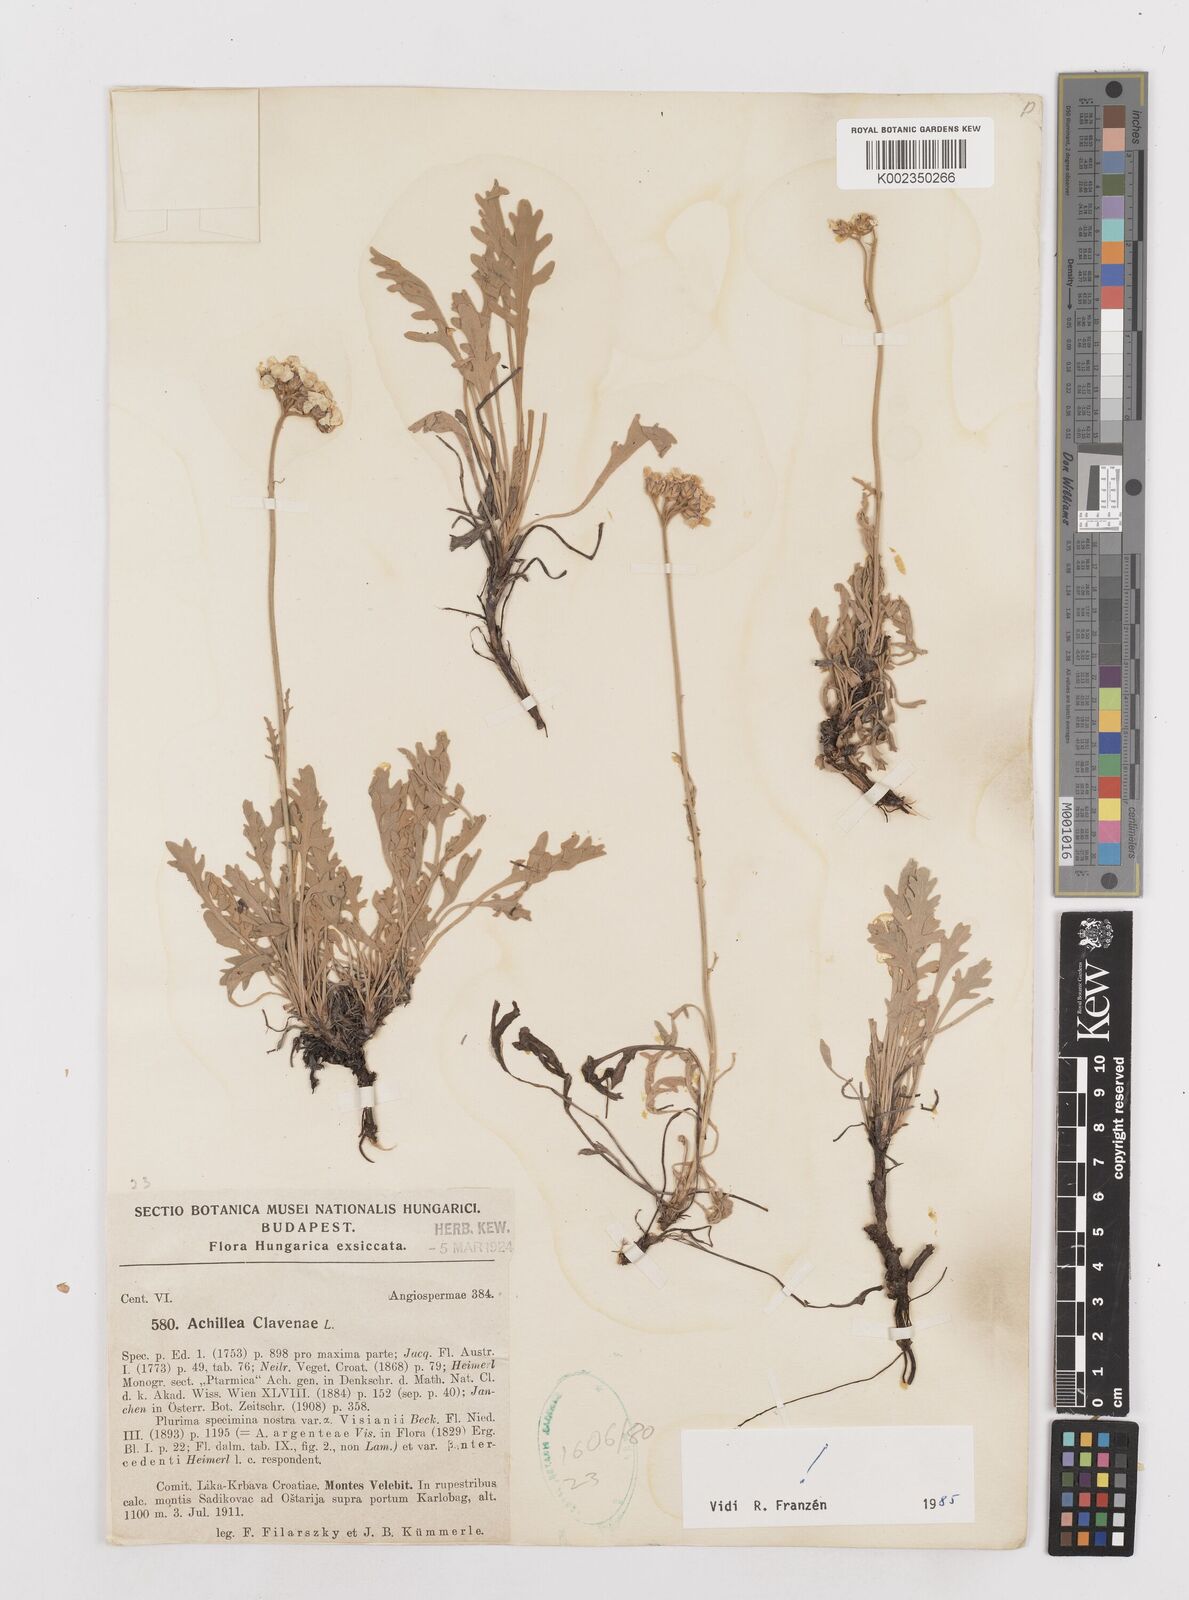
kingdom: Plantae
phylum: Tracheophyta
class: Magnoliopsida
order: Asterales
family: Asteraceae
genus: Achillea
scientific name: Achillea clavennae
